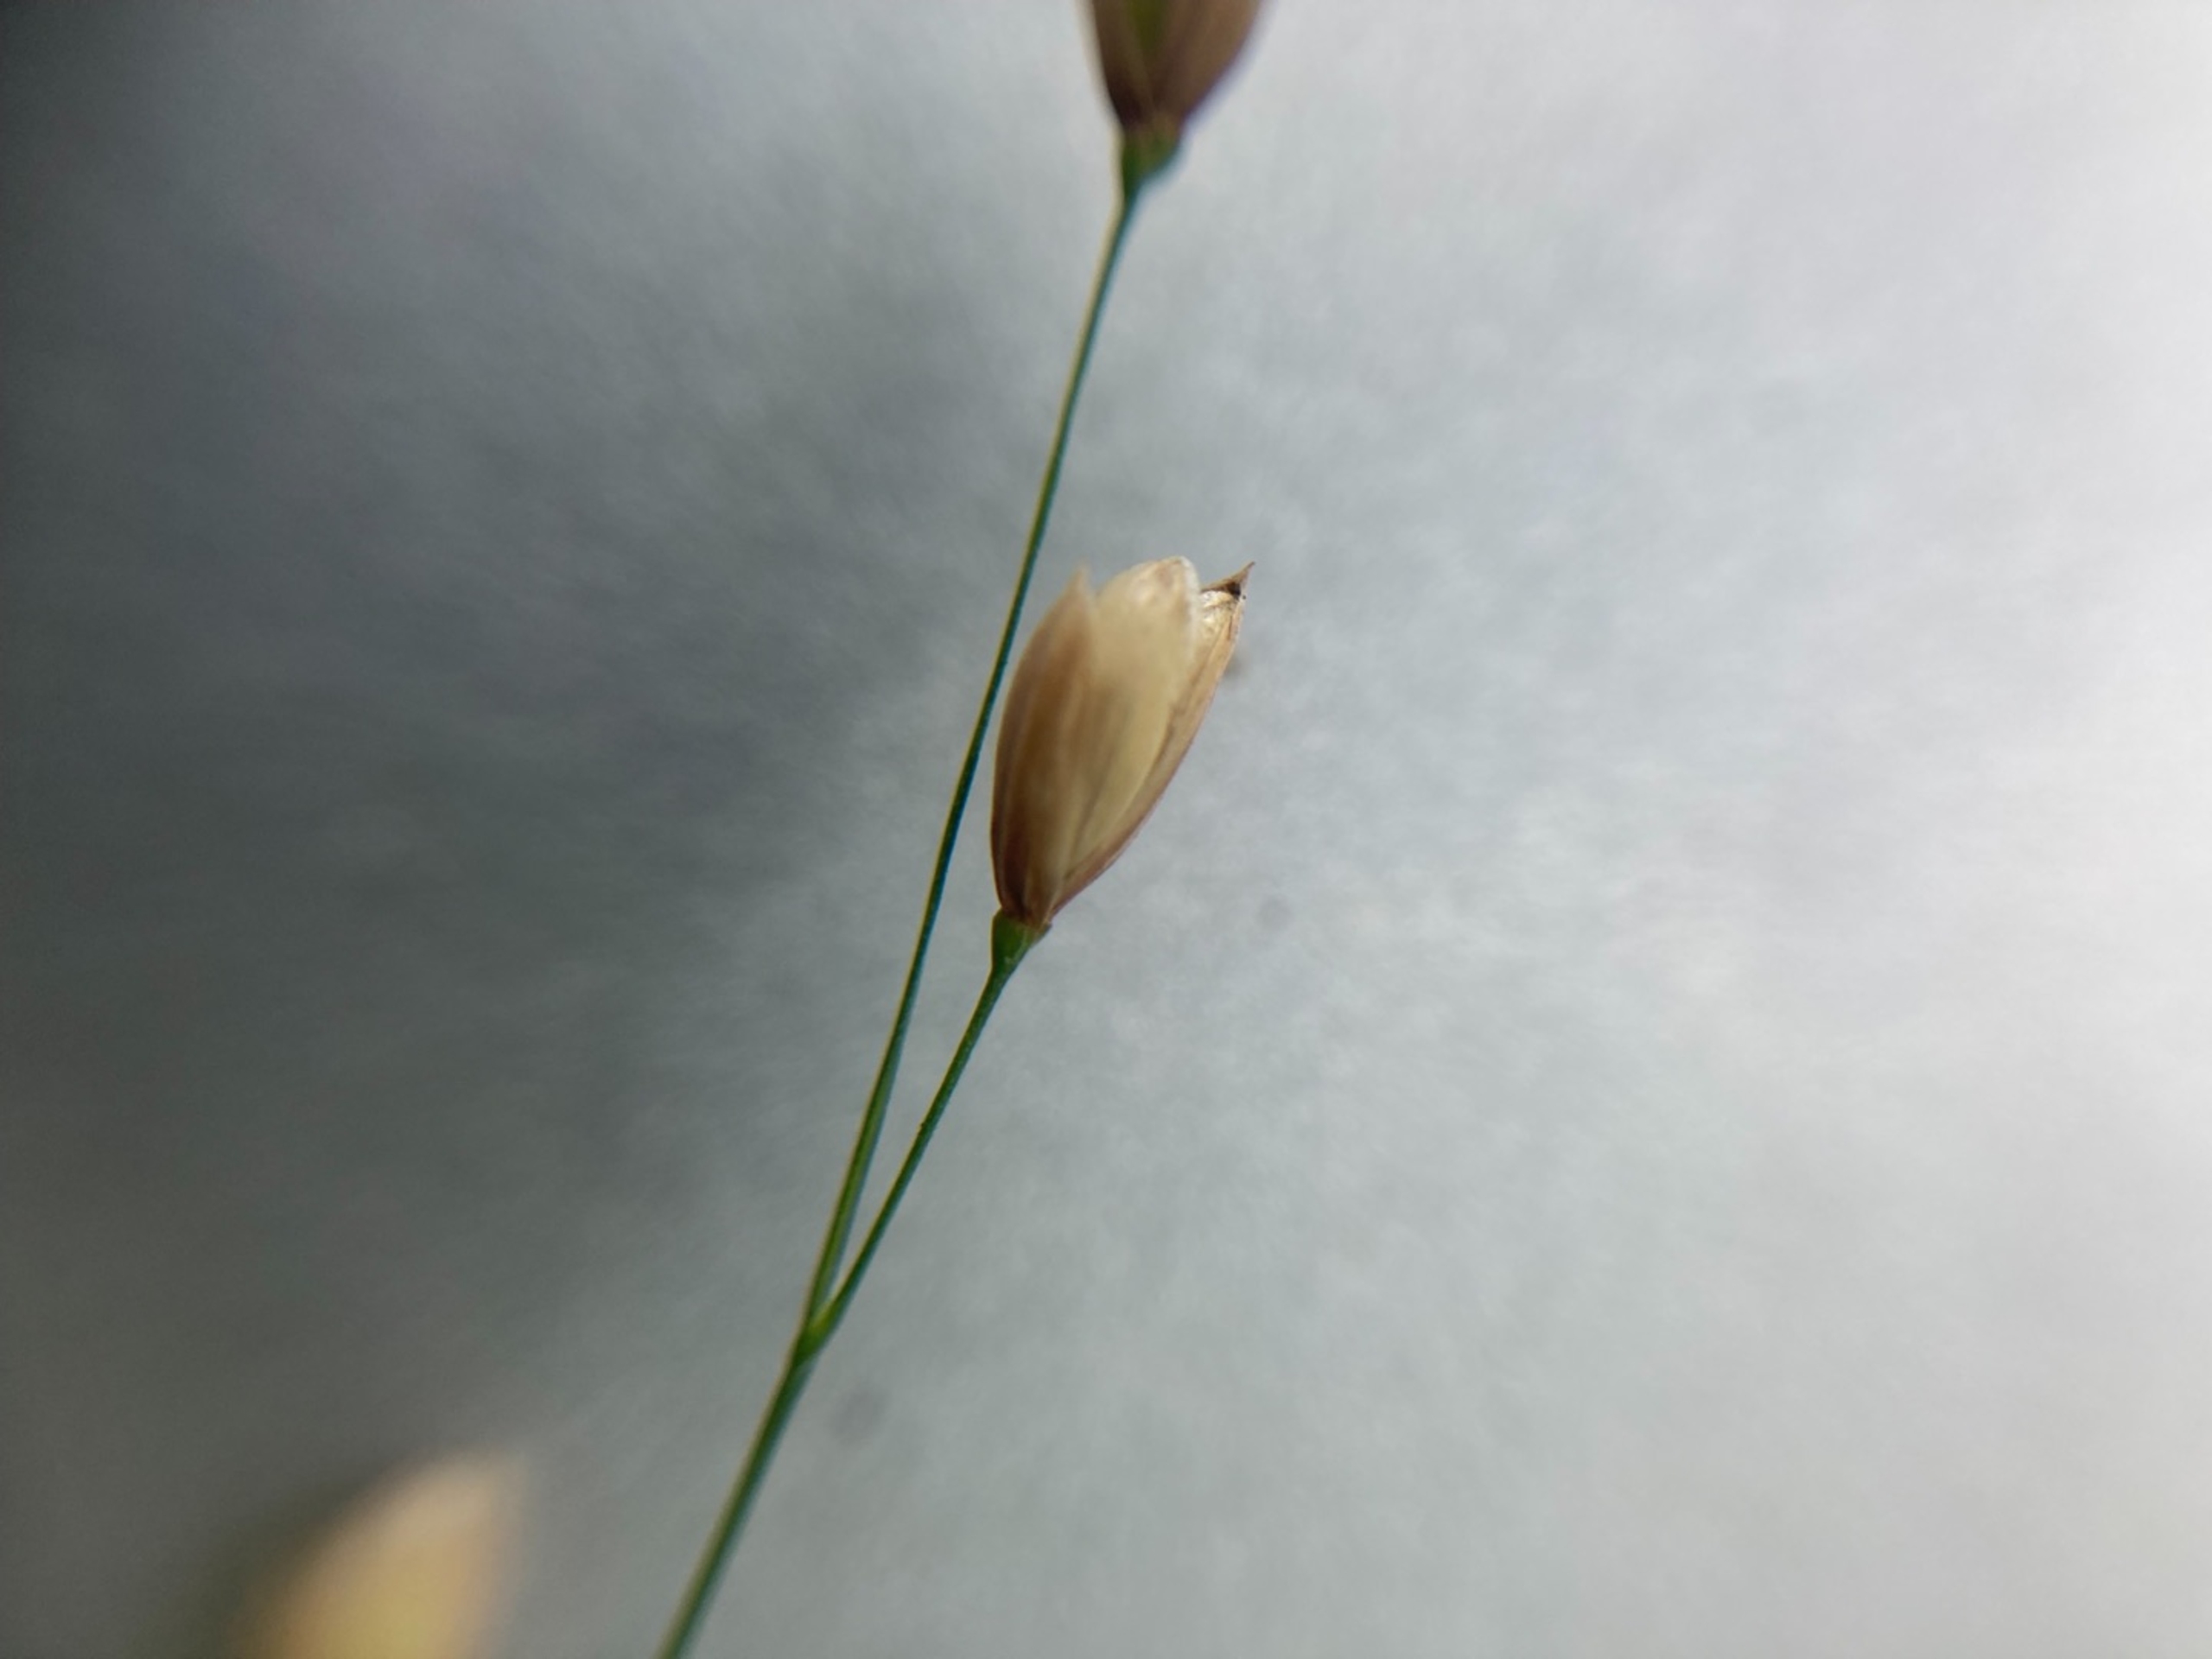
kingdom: Plantae
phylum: Tracheophyta
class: Liliopsida
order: Poales
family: Poaceae
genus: Melica
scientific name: Melica uniflora
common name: Enblomstret flitteraks
